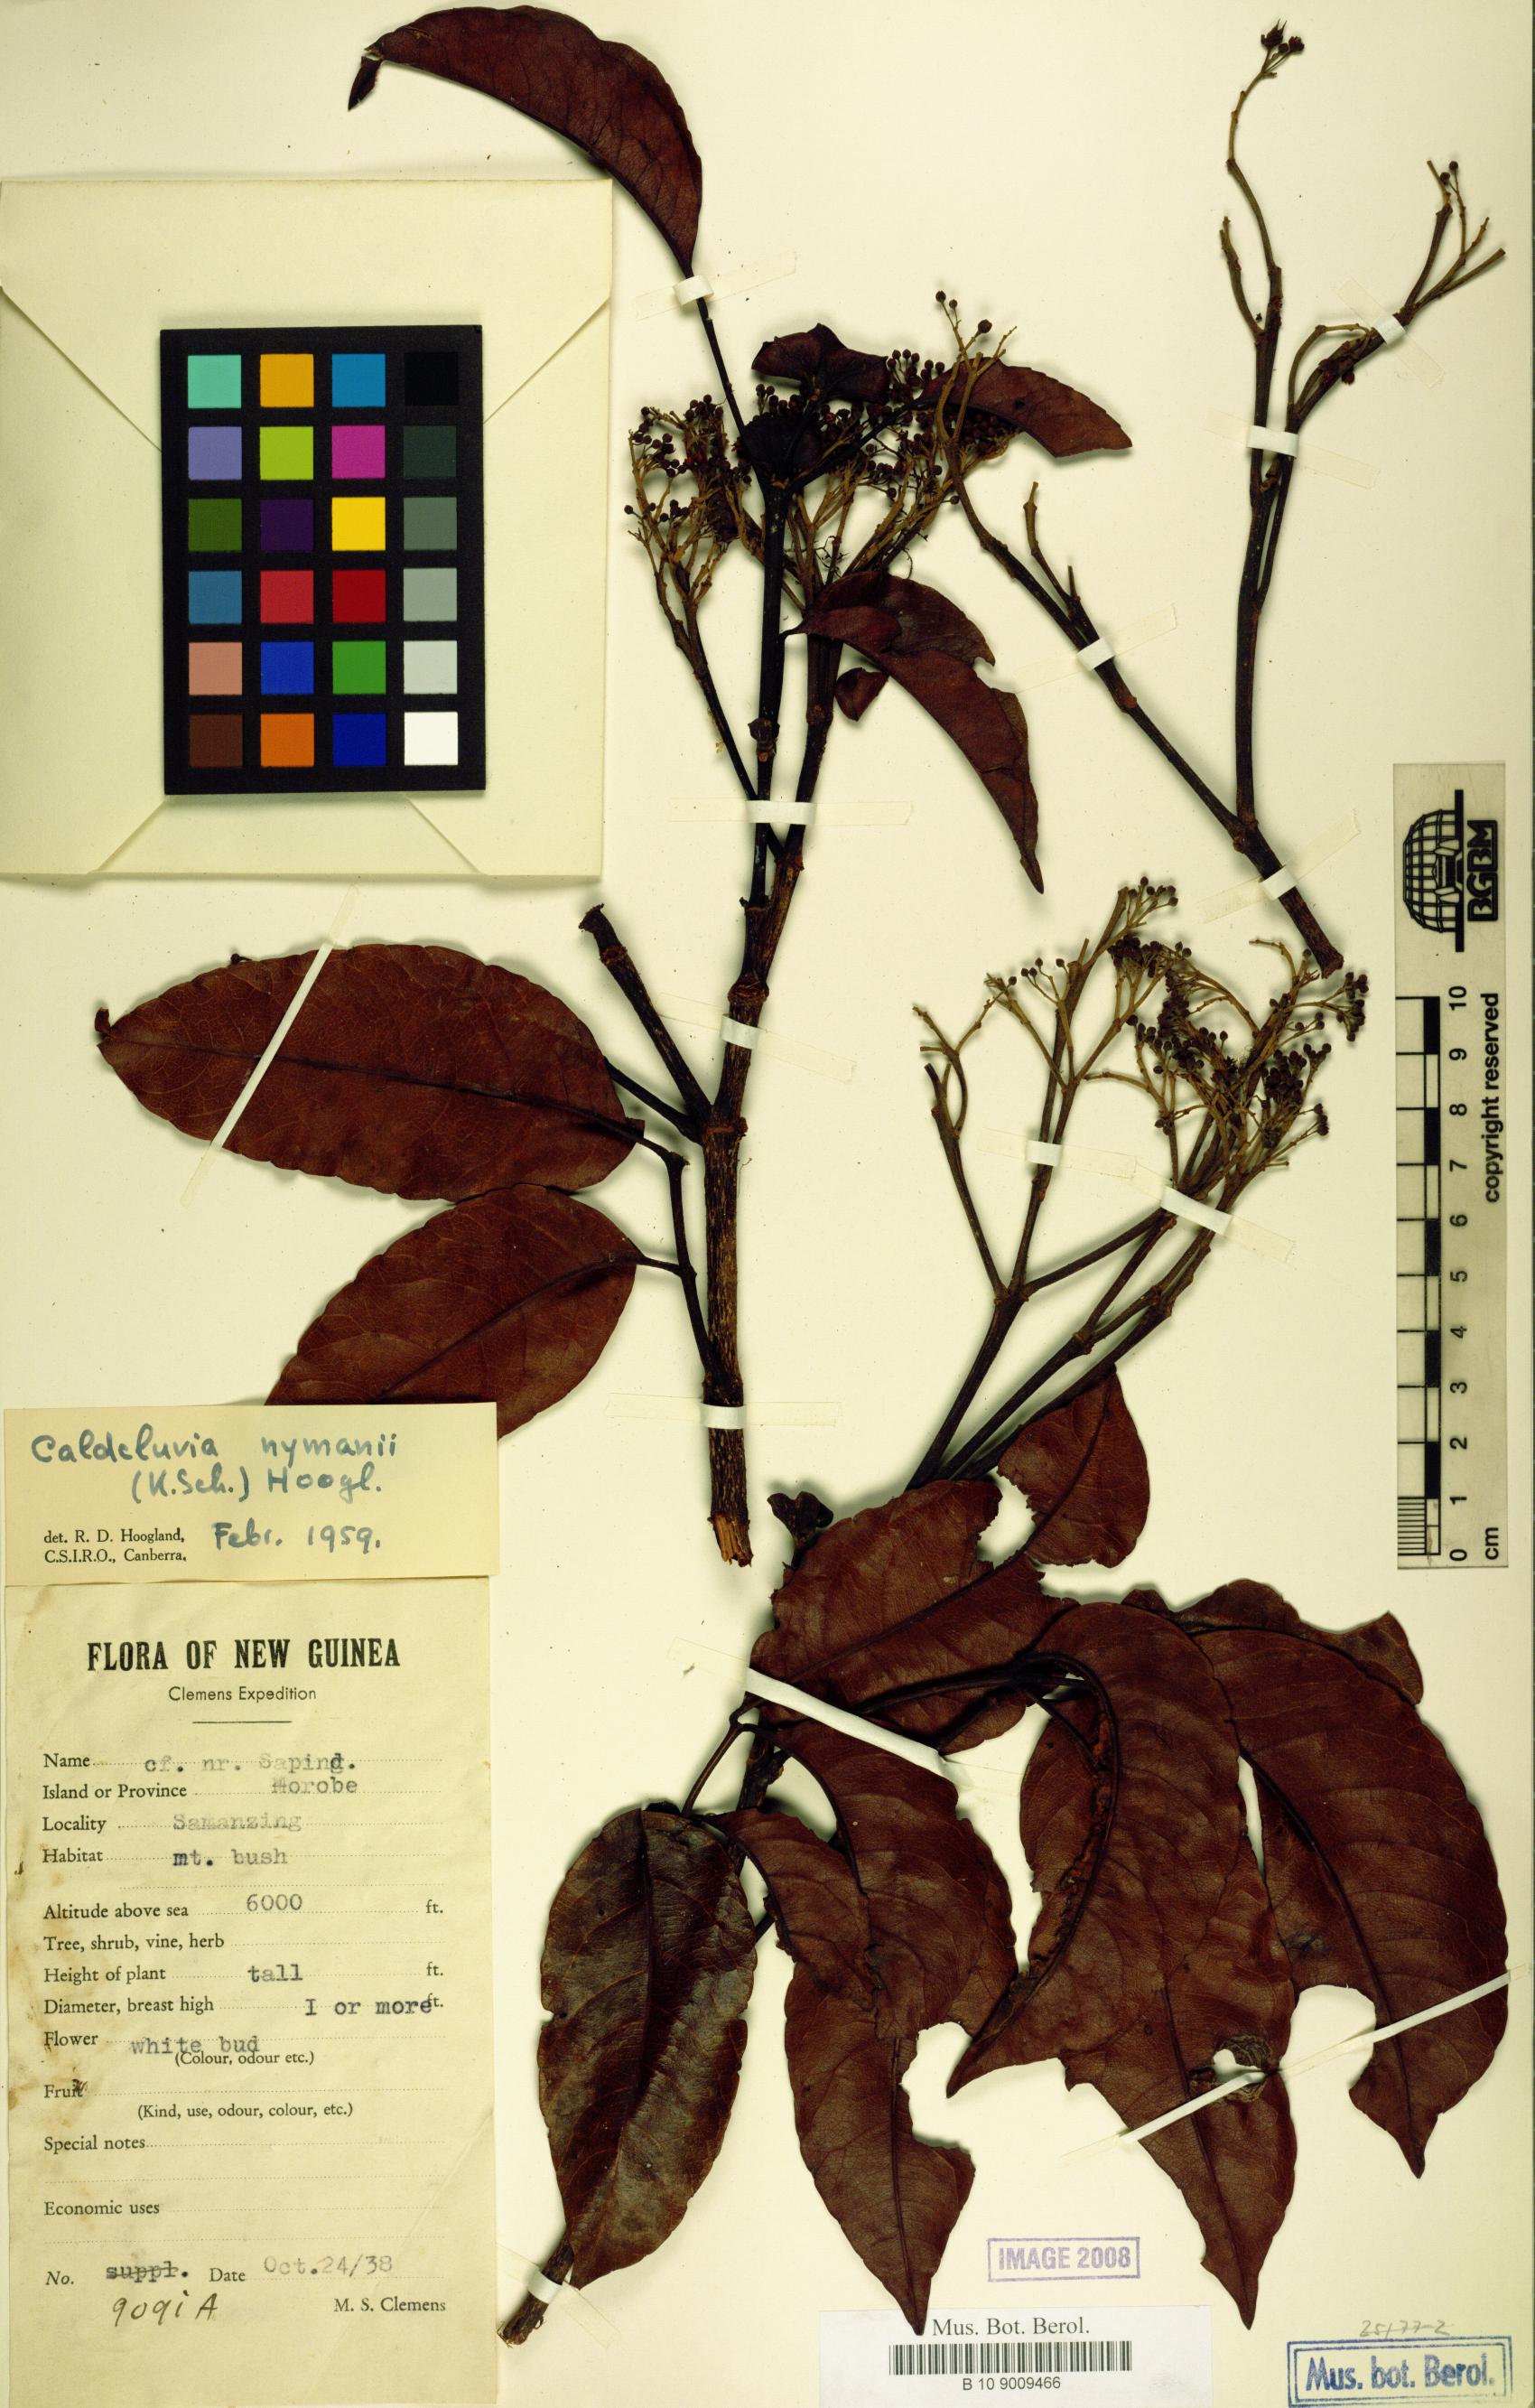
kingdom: Plantae
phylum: Tracheophyta
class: Magnoliopsida
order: Oxalidales
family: Cunoniaceae
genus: Opocunonia
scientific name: Opocunonia nymanii
